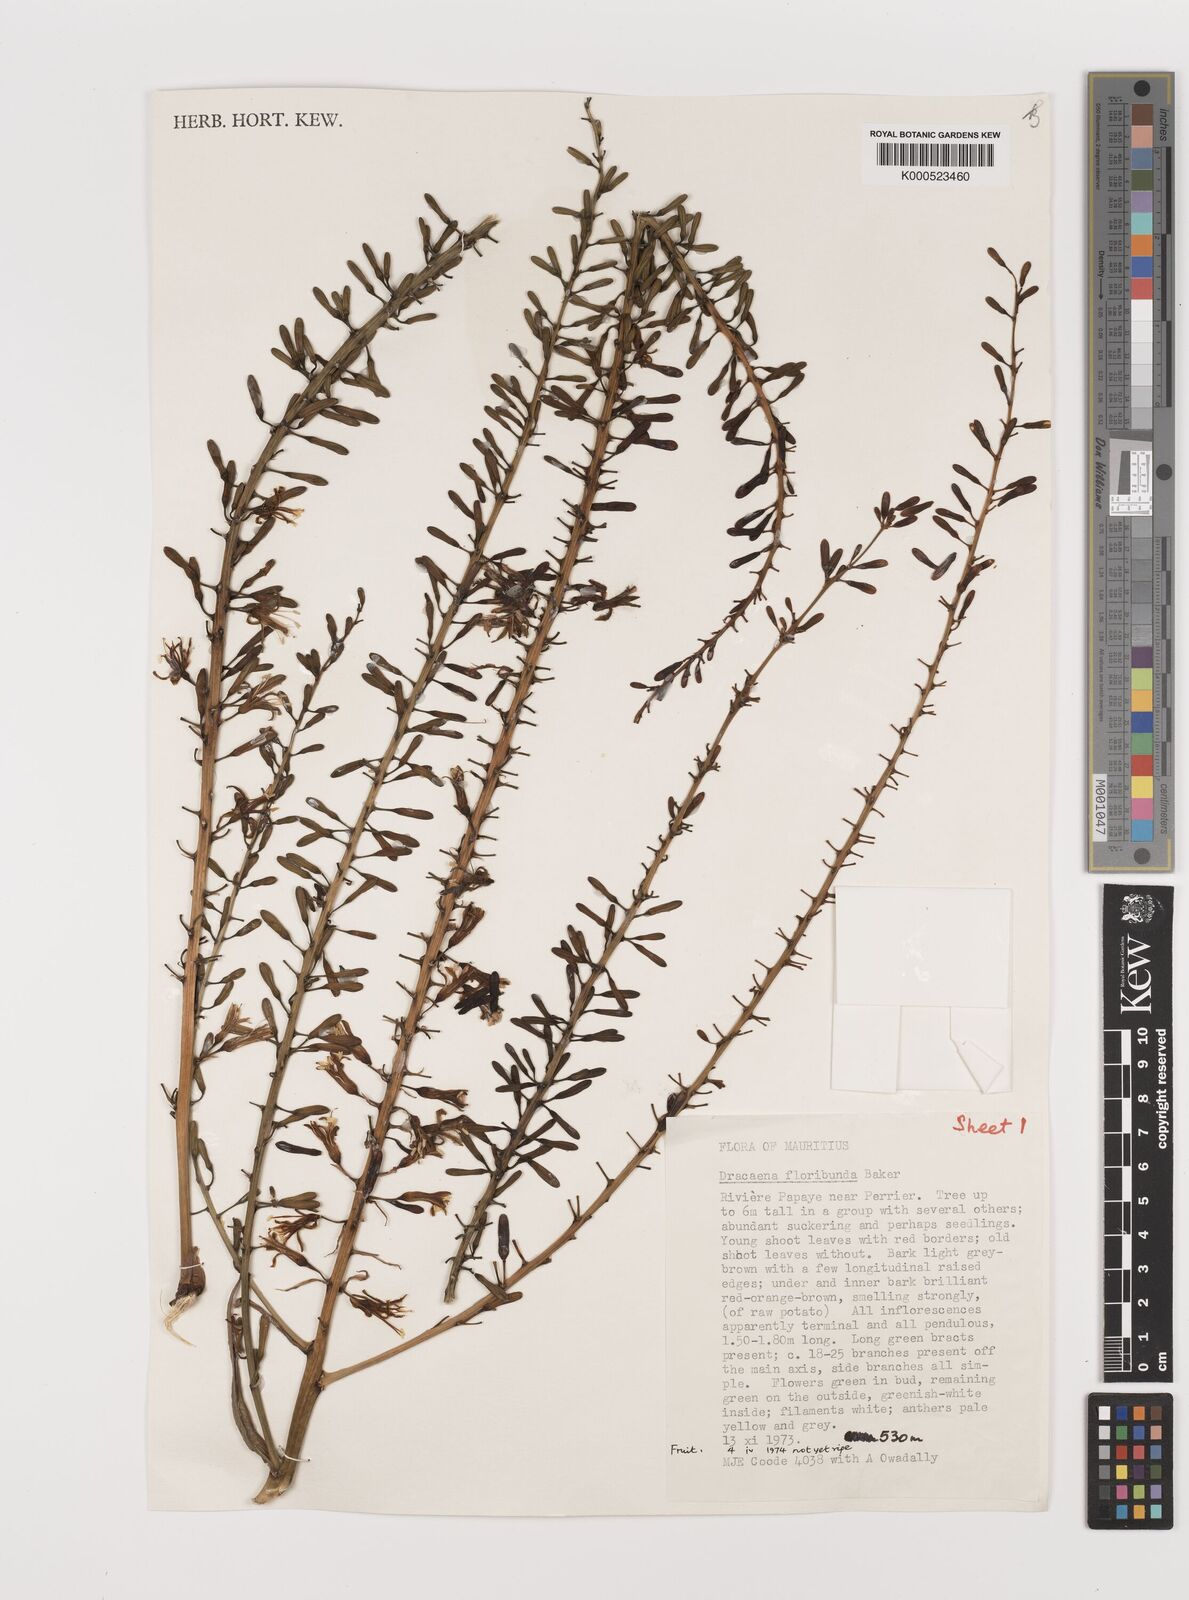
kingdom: Plantae
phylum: Tracheophyta
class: Liliopsida
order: Asparagales
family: Asparagaceae
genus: Dracaena
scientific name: Dracaena floribunda
